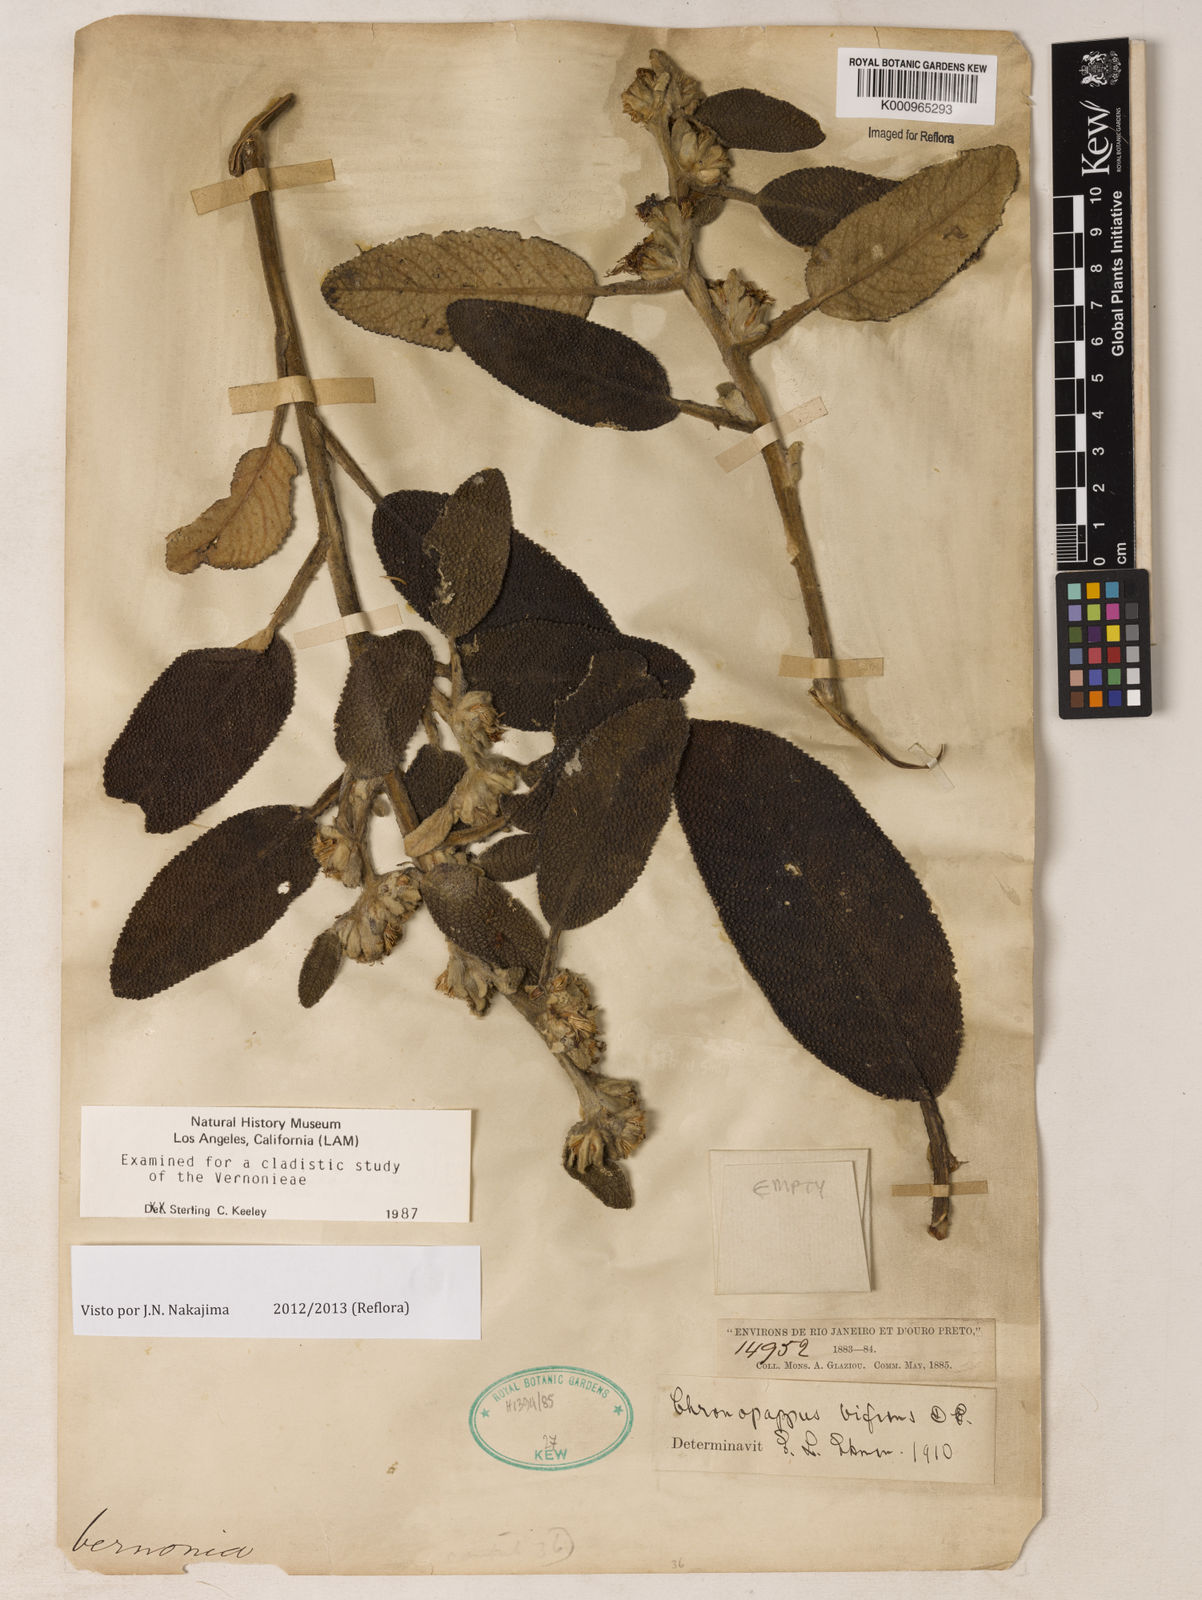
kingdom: Plantae
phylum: Tracheophyta
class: Magnoliopsida
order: Asterales
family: Asteraceae
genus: Chronopappus
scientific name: Chronopappus bifrons
